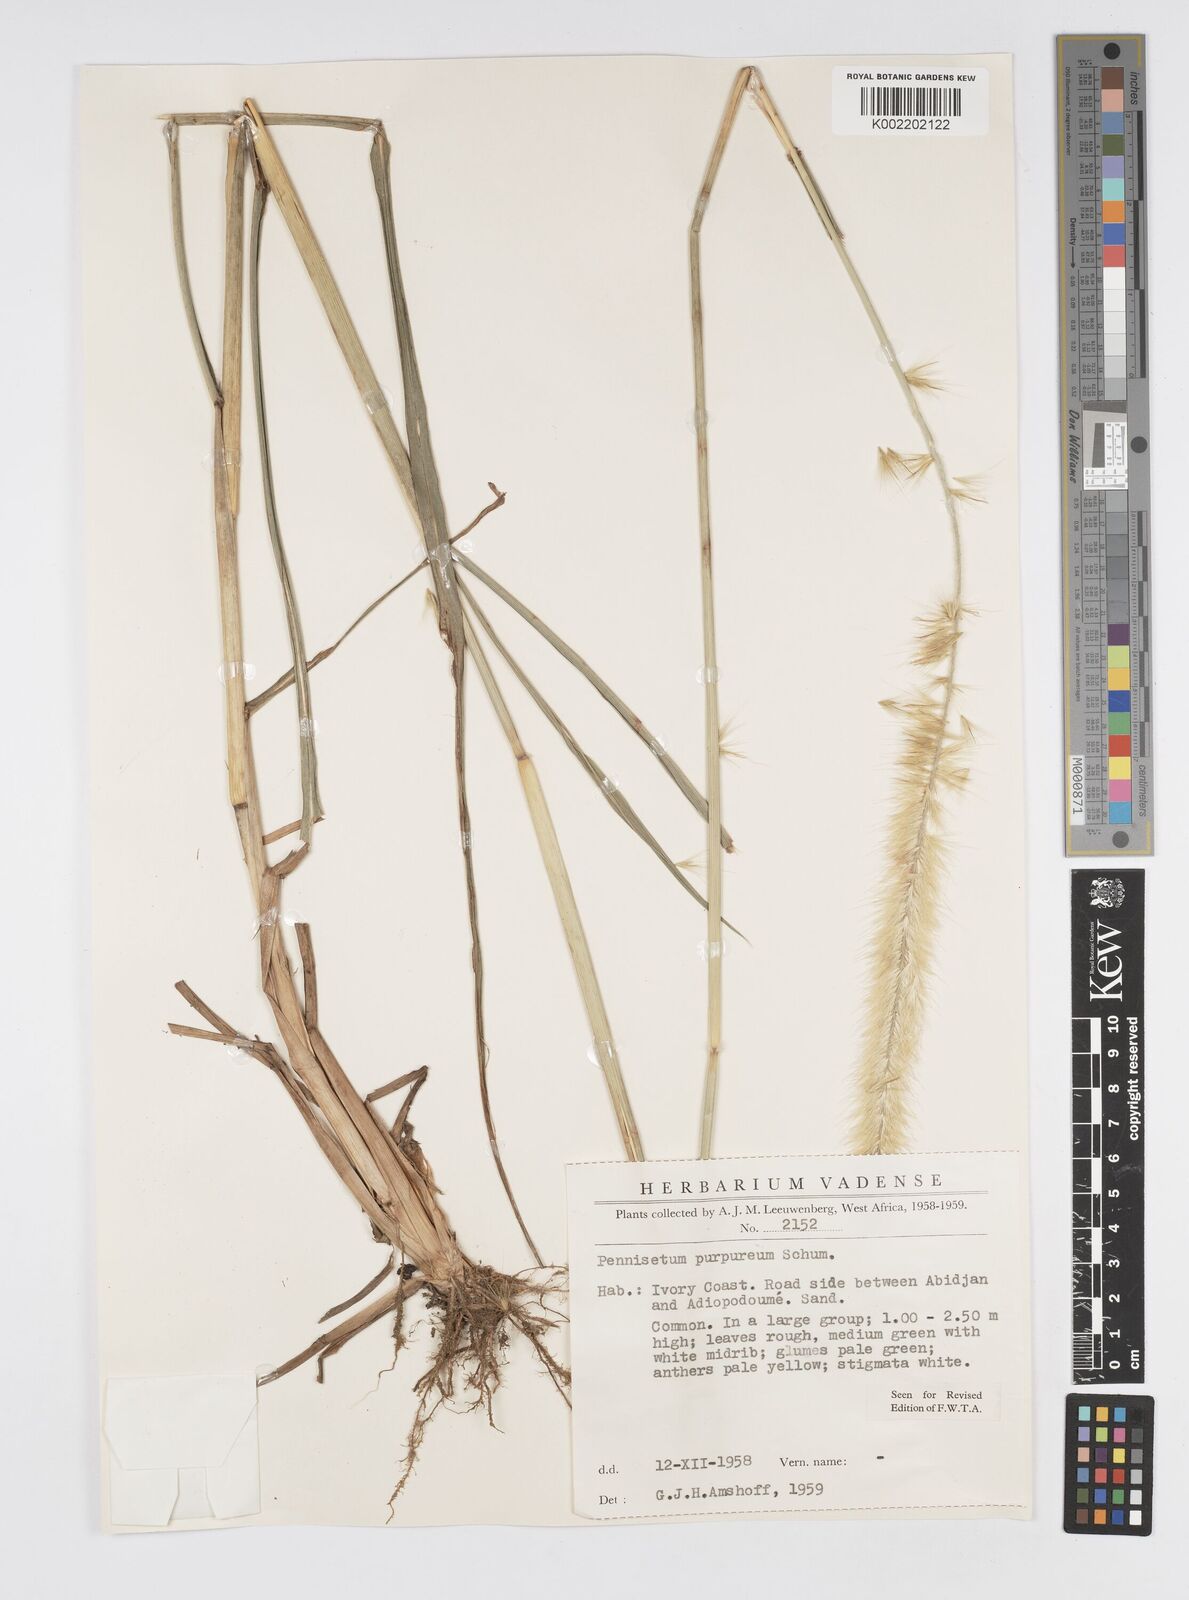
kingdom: Plantae
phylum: Tracheophyta
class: Liliopsida
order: Poales
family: Poaceae
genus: Cenchrus
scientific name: Cenchrus purpureus
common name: Elephant grass
